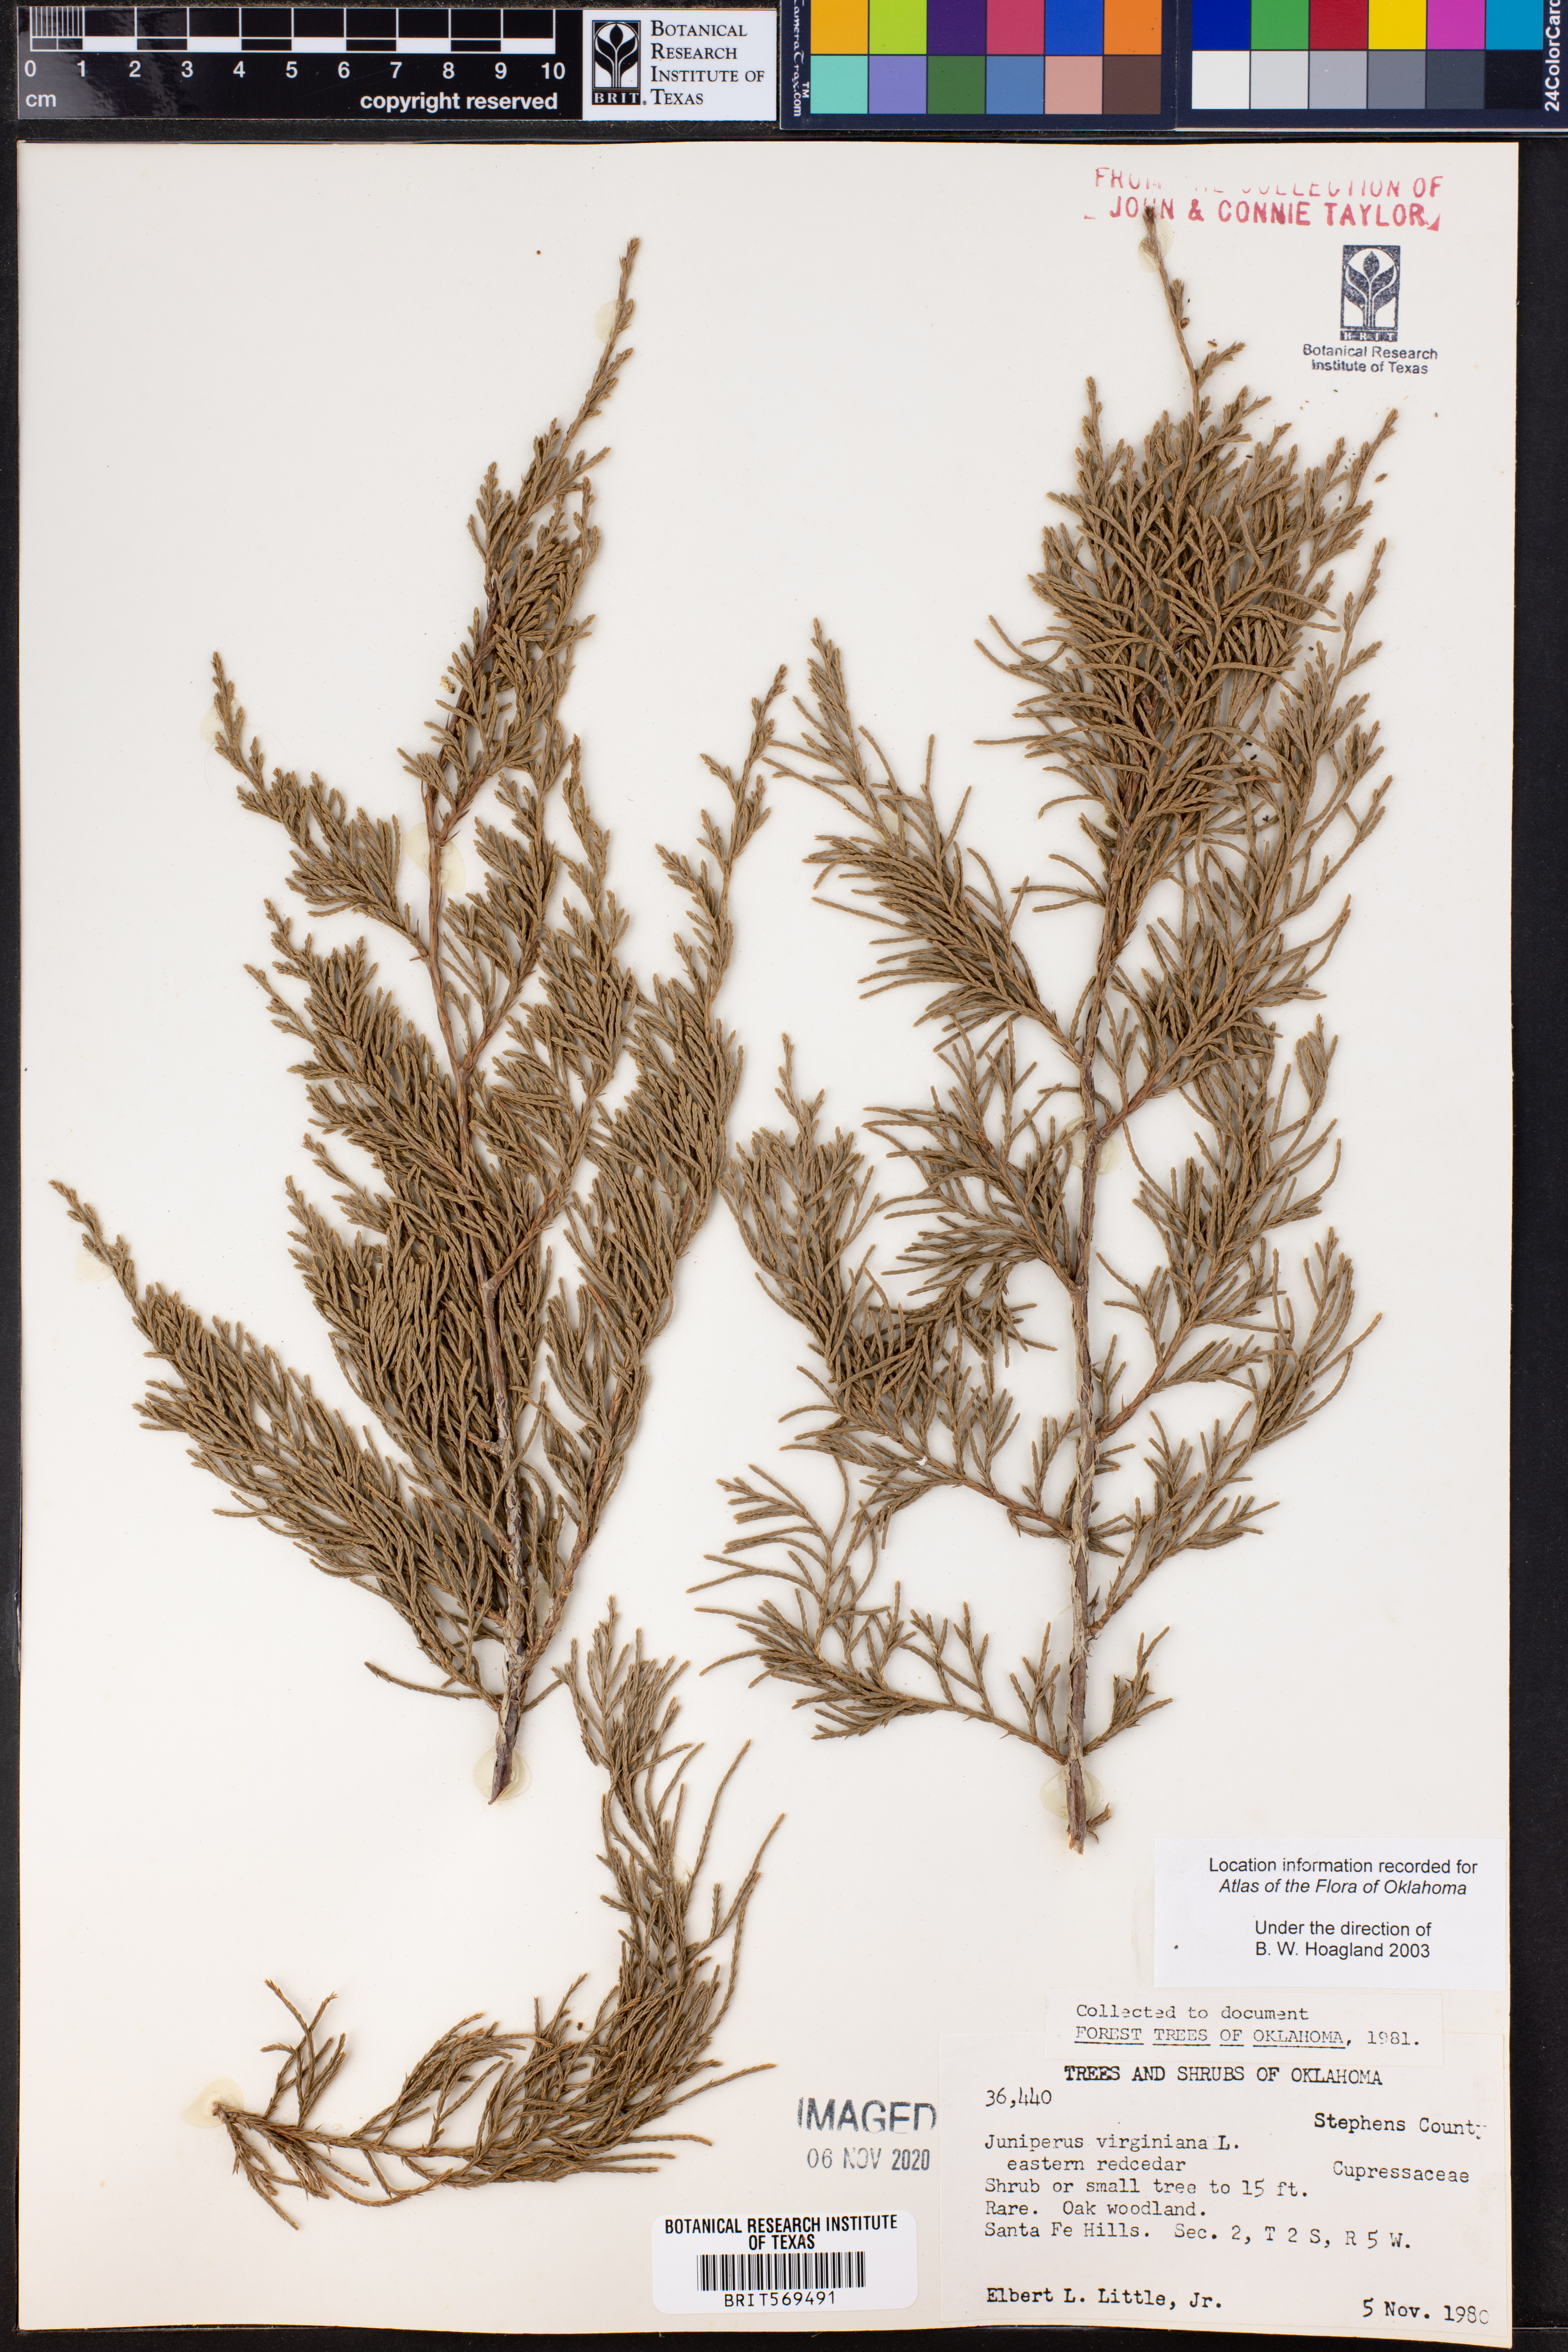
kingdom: Plantae
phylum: Tracheophyta
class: Pinopsida
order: Pinales
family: Cupressaceae
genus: Juniperus
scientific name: Juniperus virginiana
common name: Red juniper
